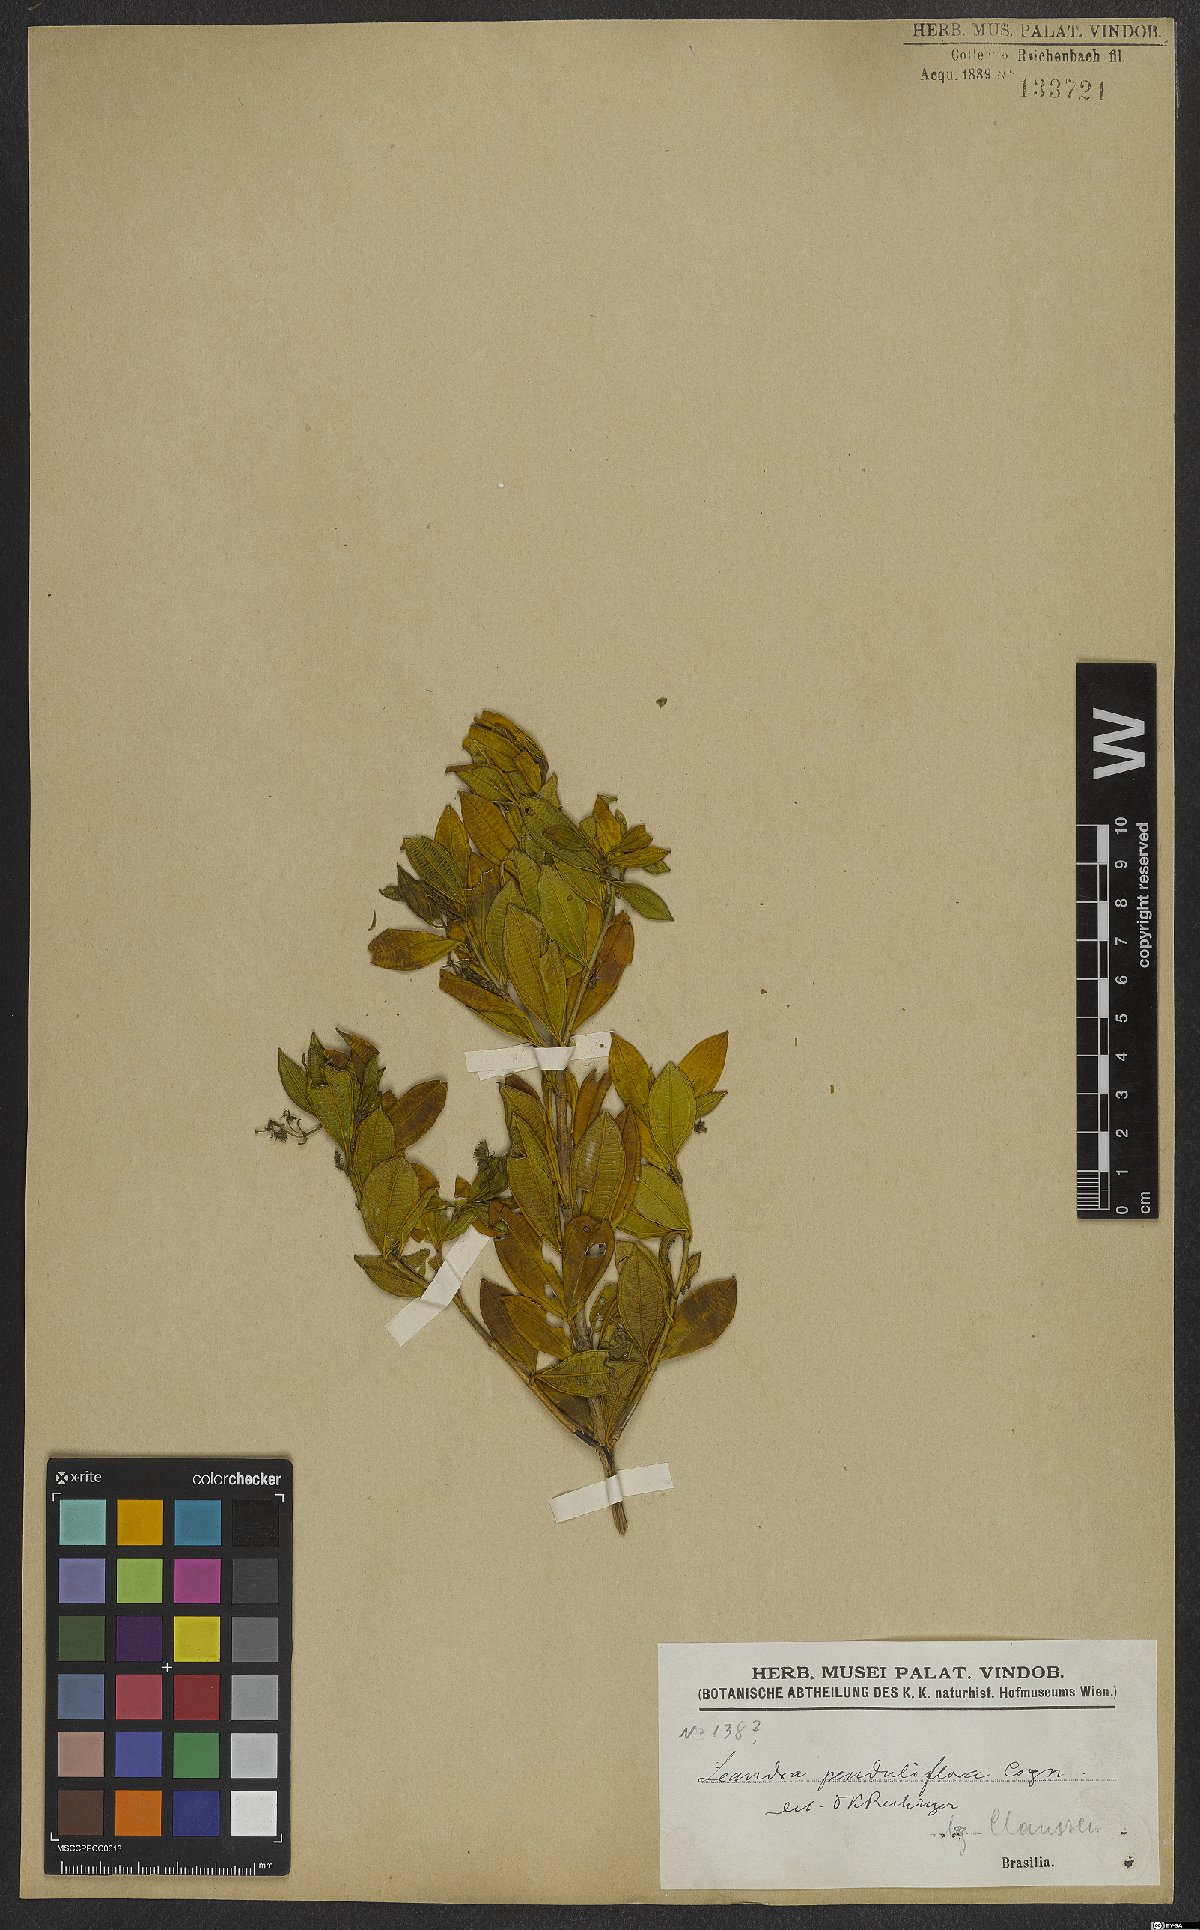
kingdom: Plantae
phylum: Tracheophyta
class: Magnoliopsida
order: Myrtales
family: Melastomataceae
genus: Miconia
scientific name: Miconia dolichodons
